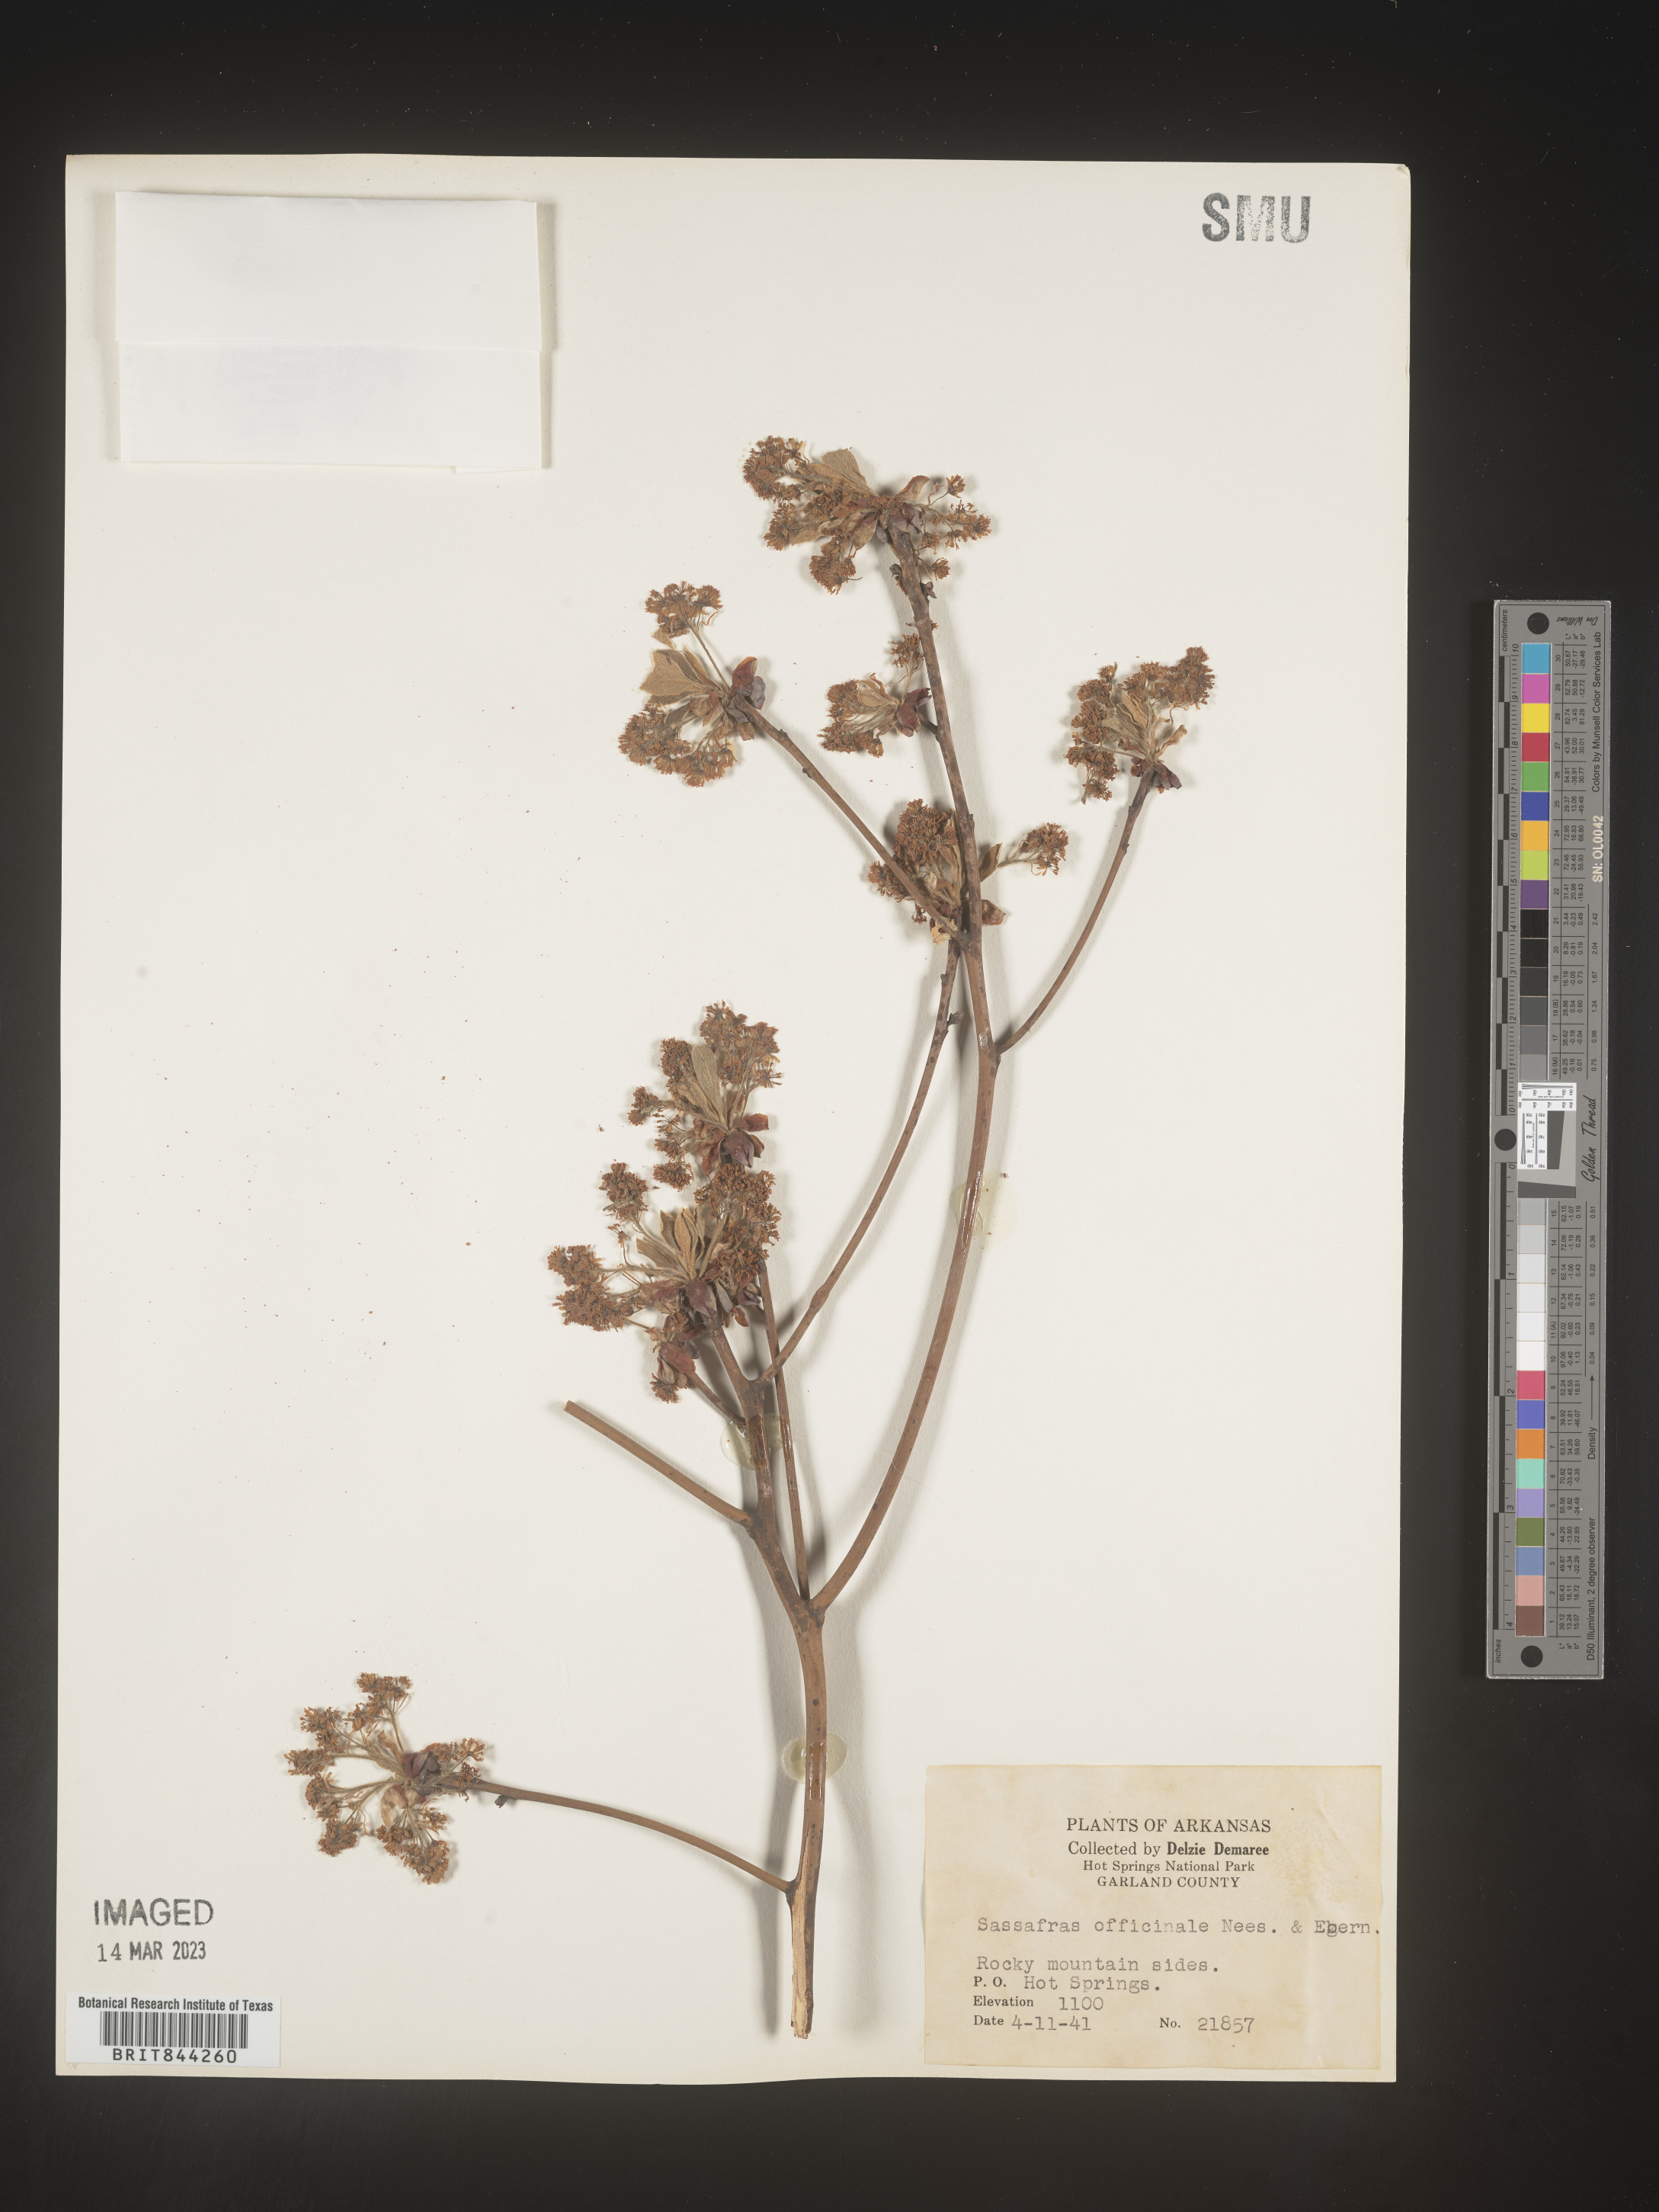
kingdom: Plantae
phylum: Tracheophyta
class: Magnoliopsida
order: Laurales
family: Lauraceae
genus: Sassafras
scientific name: Sassafras albidum
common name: Sassafras
